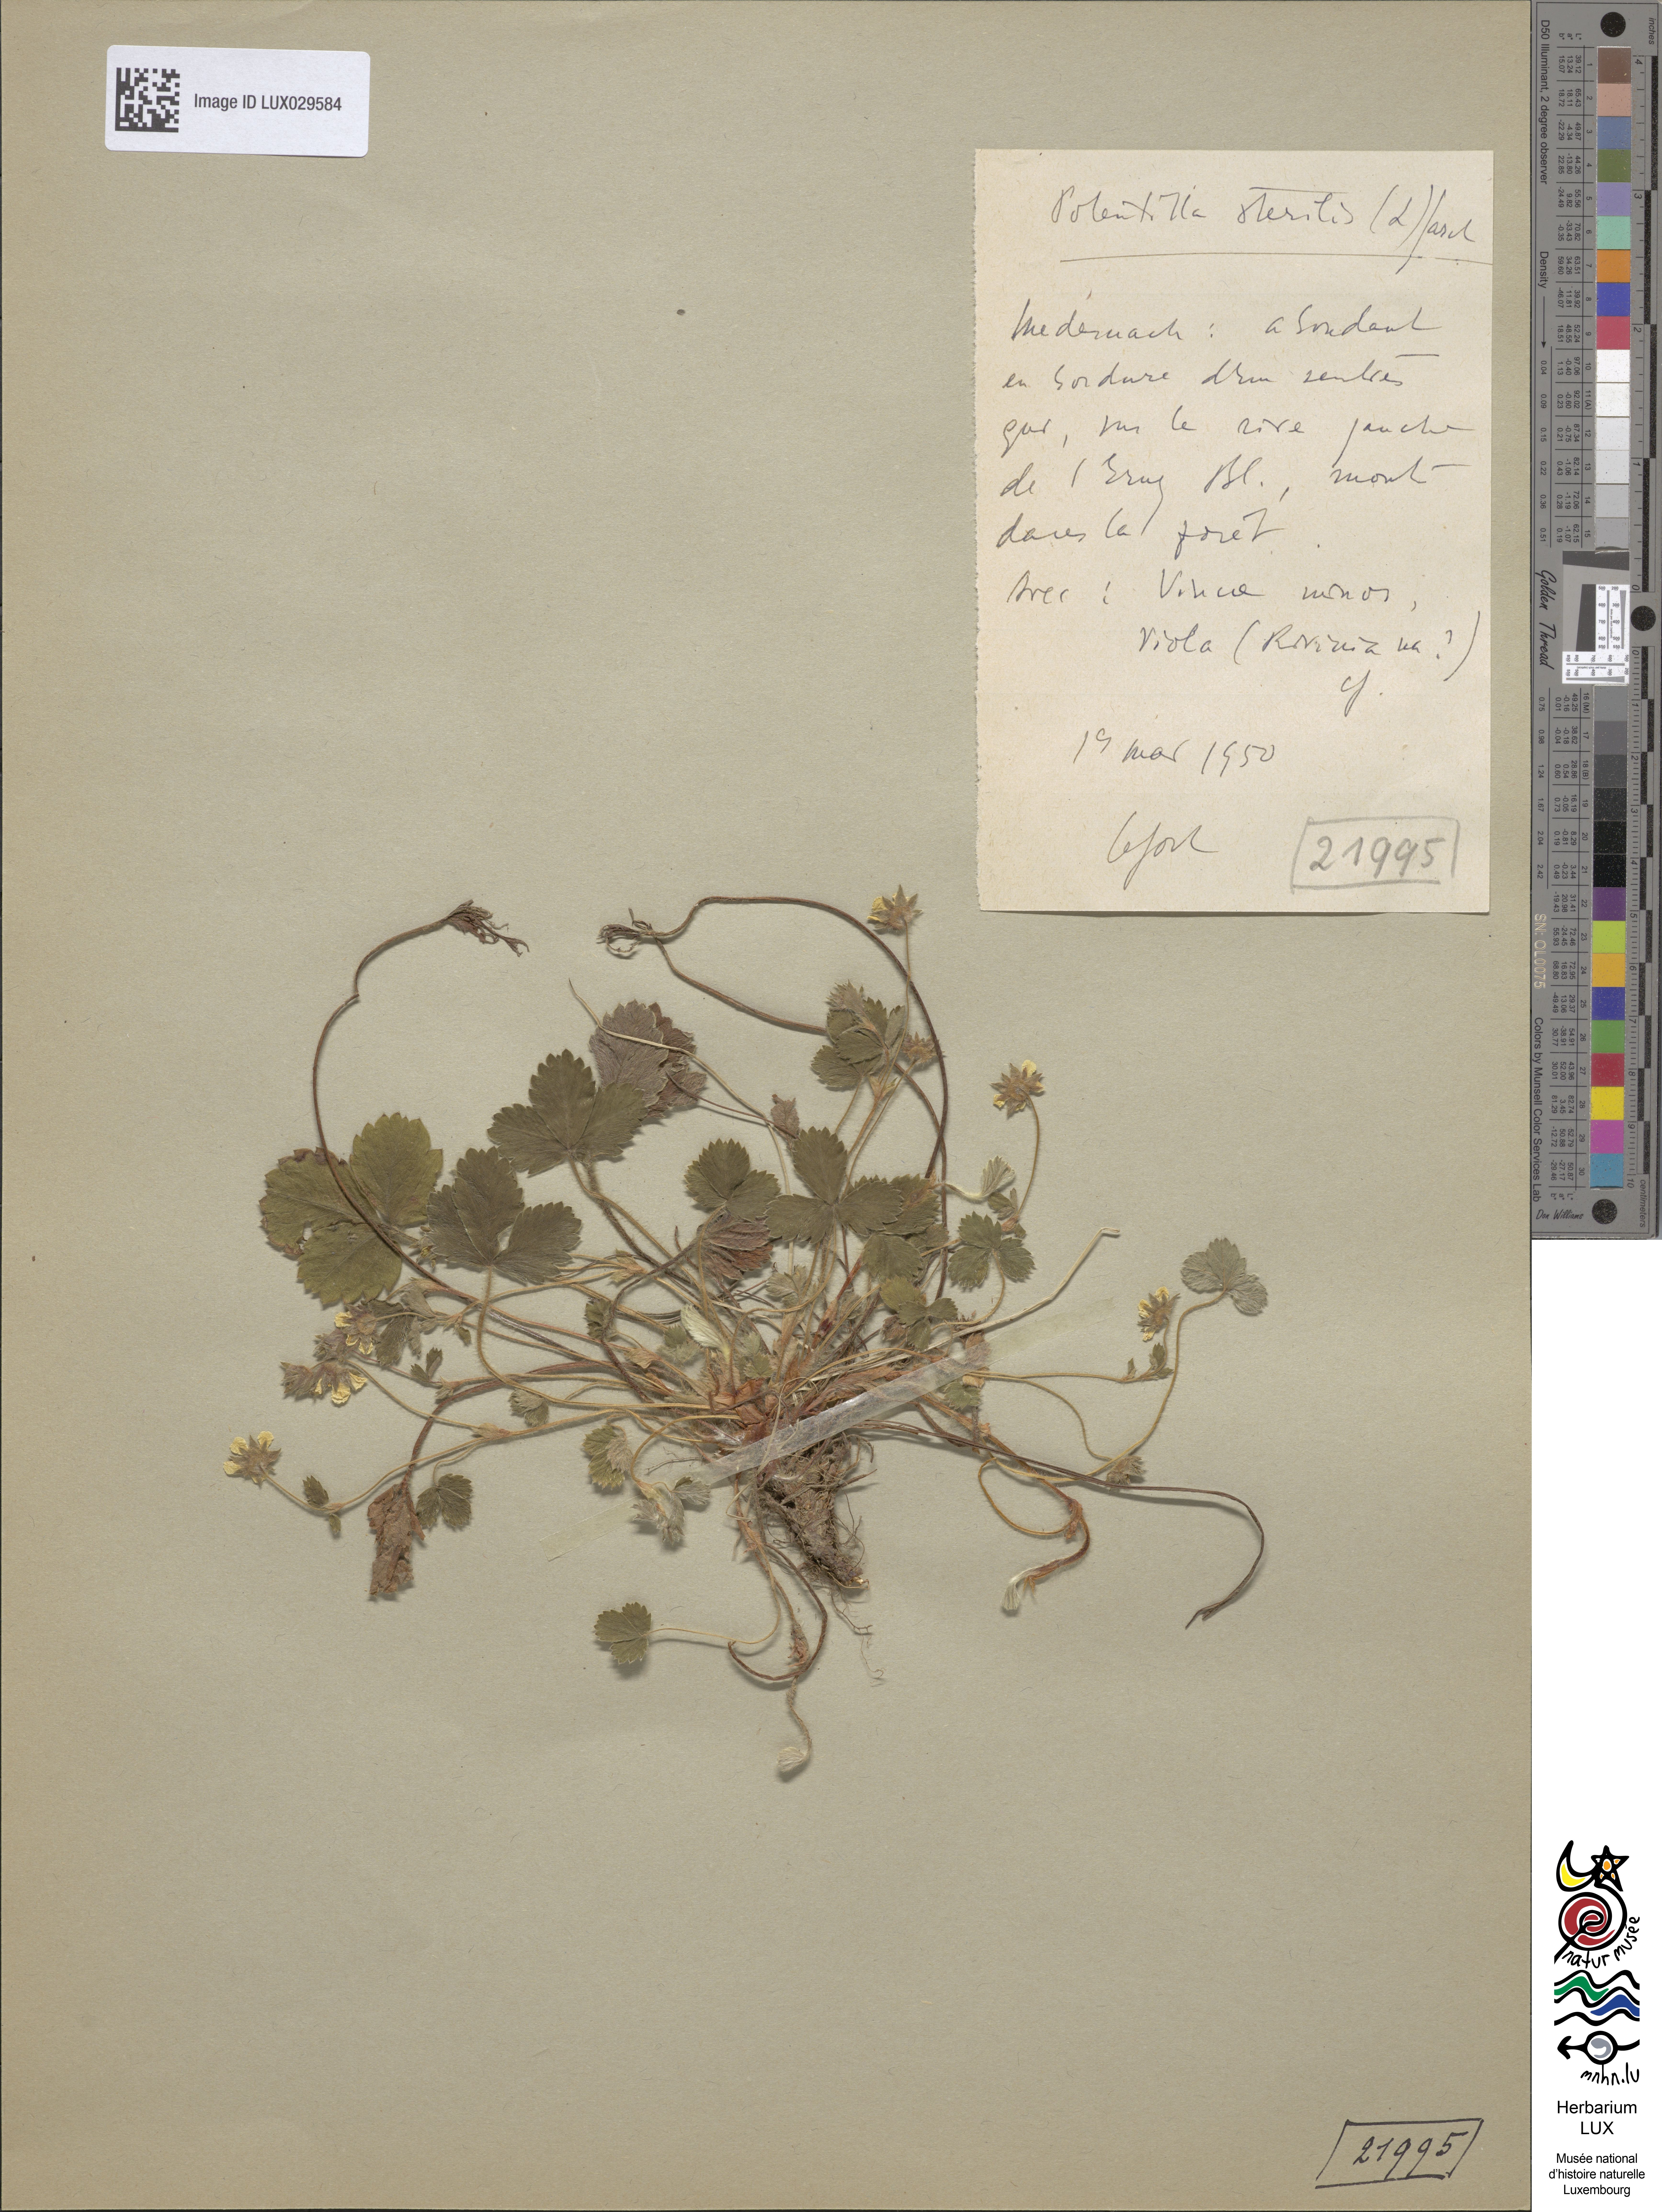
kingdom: Plantae
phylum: Tracheophyta
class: Magnoliopsida
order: Rosales
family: Rosaceae
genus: Potentilla
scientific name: Potentilla sterilis
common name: Barren strawberry
